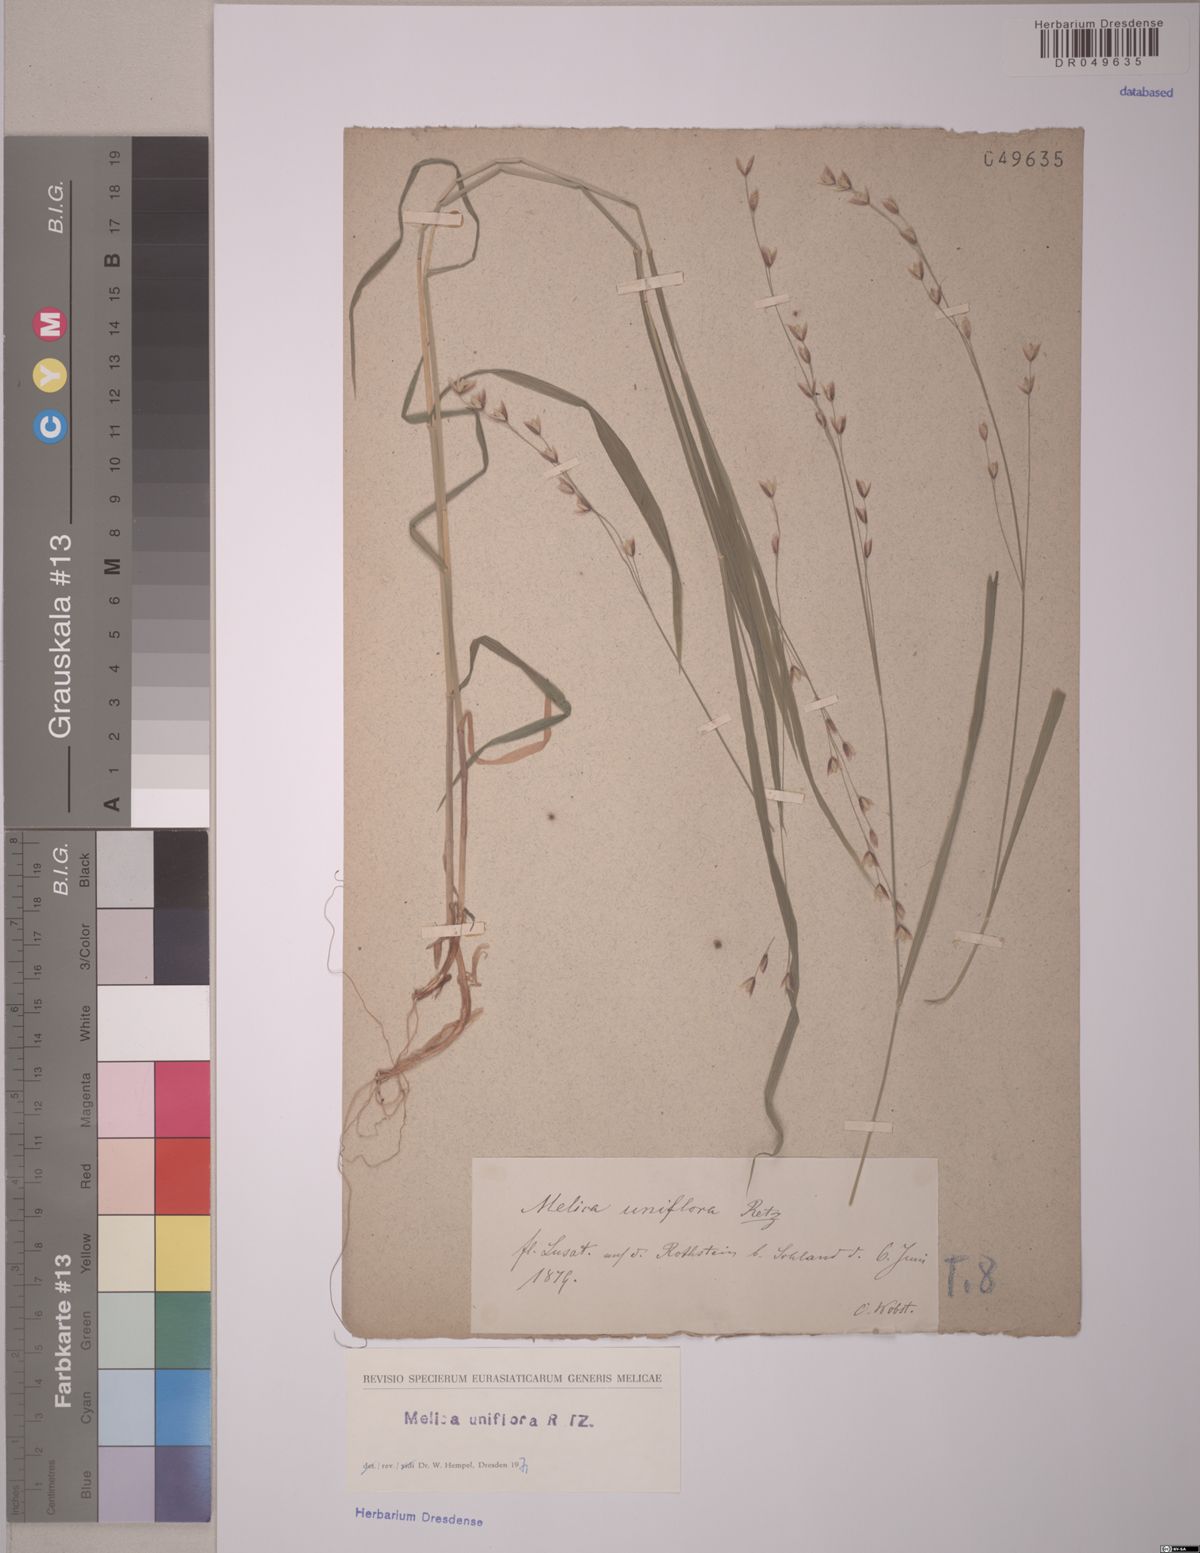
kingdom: Plantae
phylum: Tracheophyta
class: Liliopsida
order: Poales
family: Poaceae
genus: Melica
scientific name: Melica uniflora
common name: Wood melick
